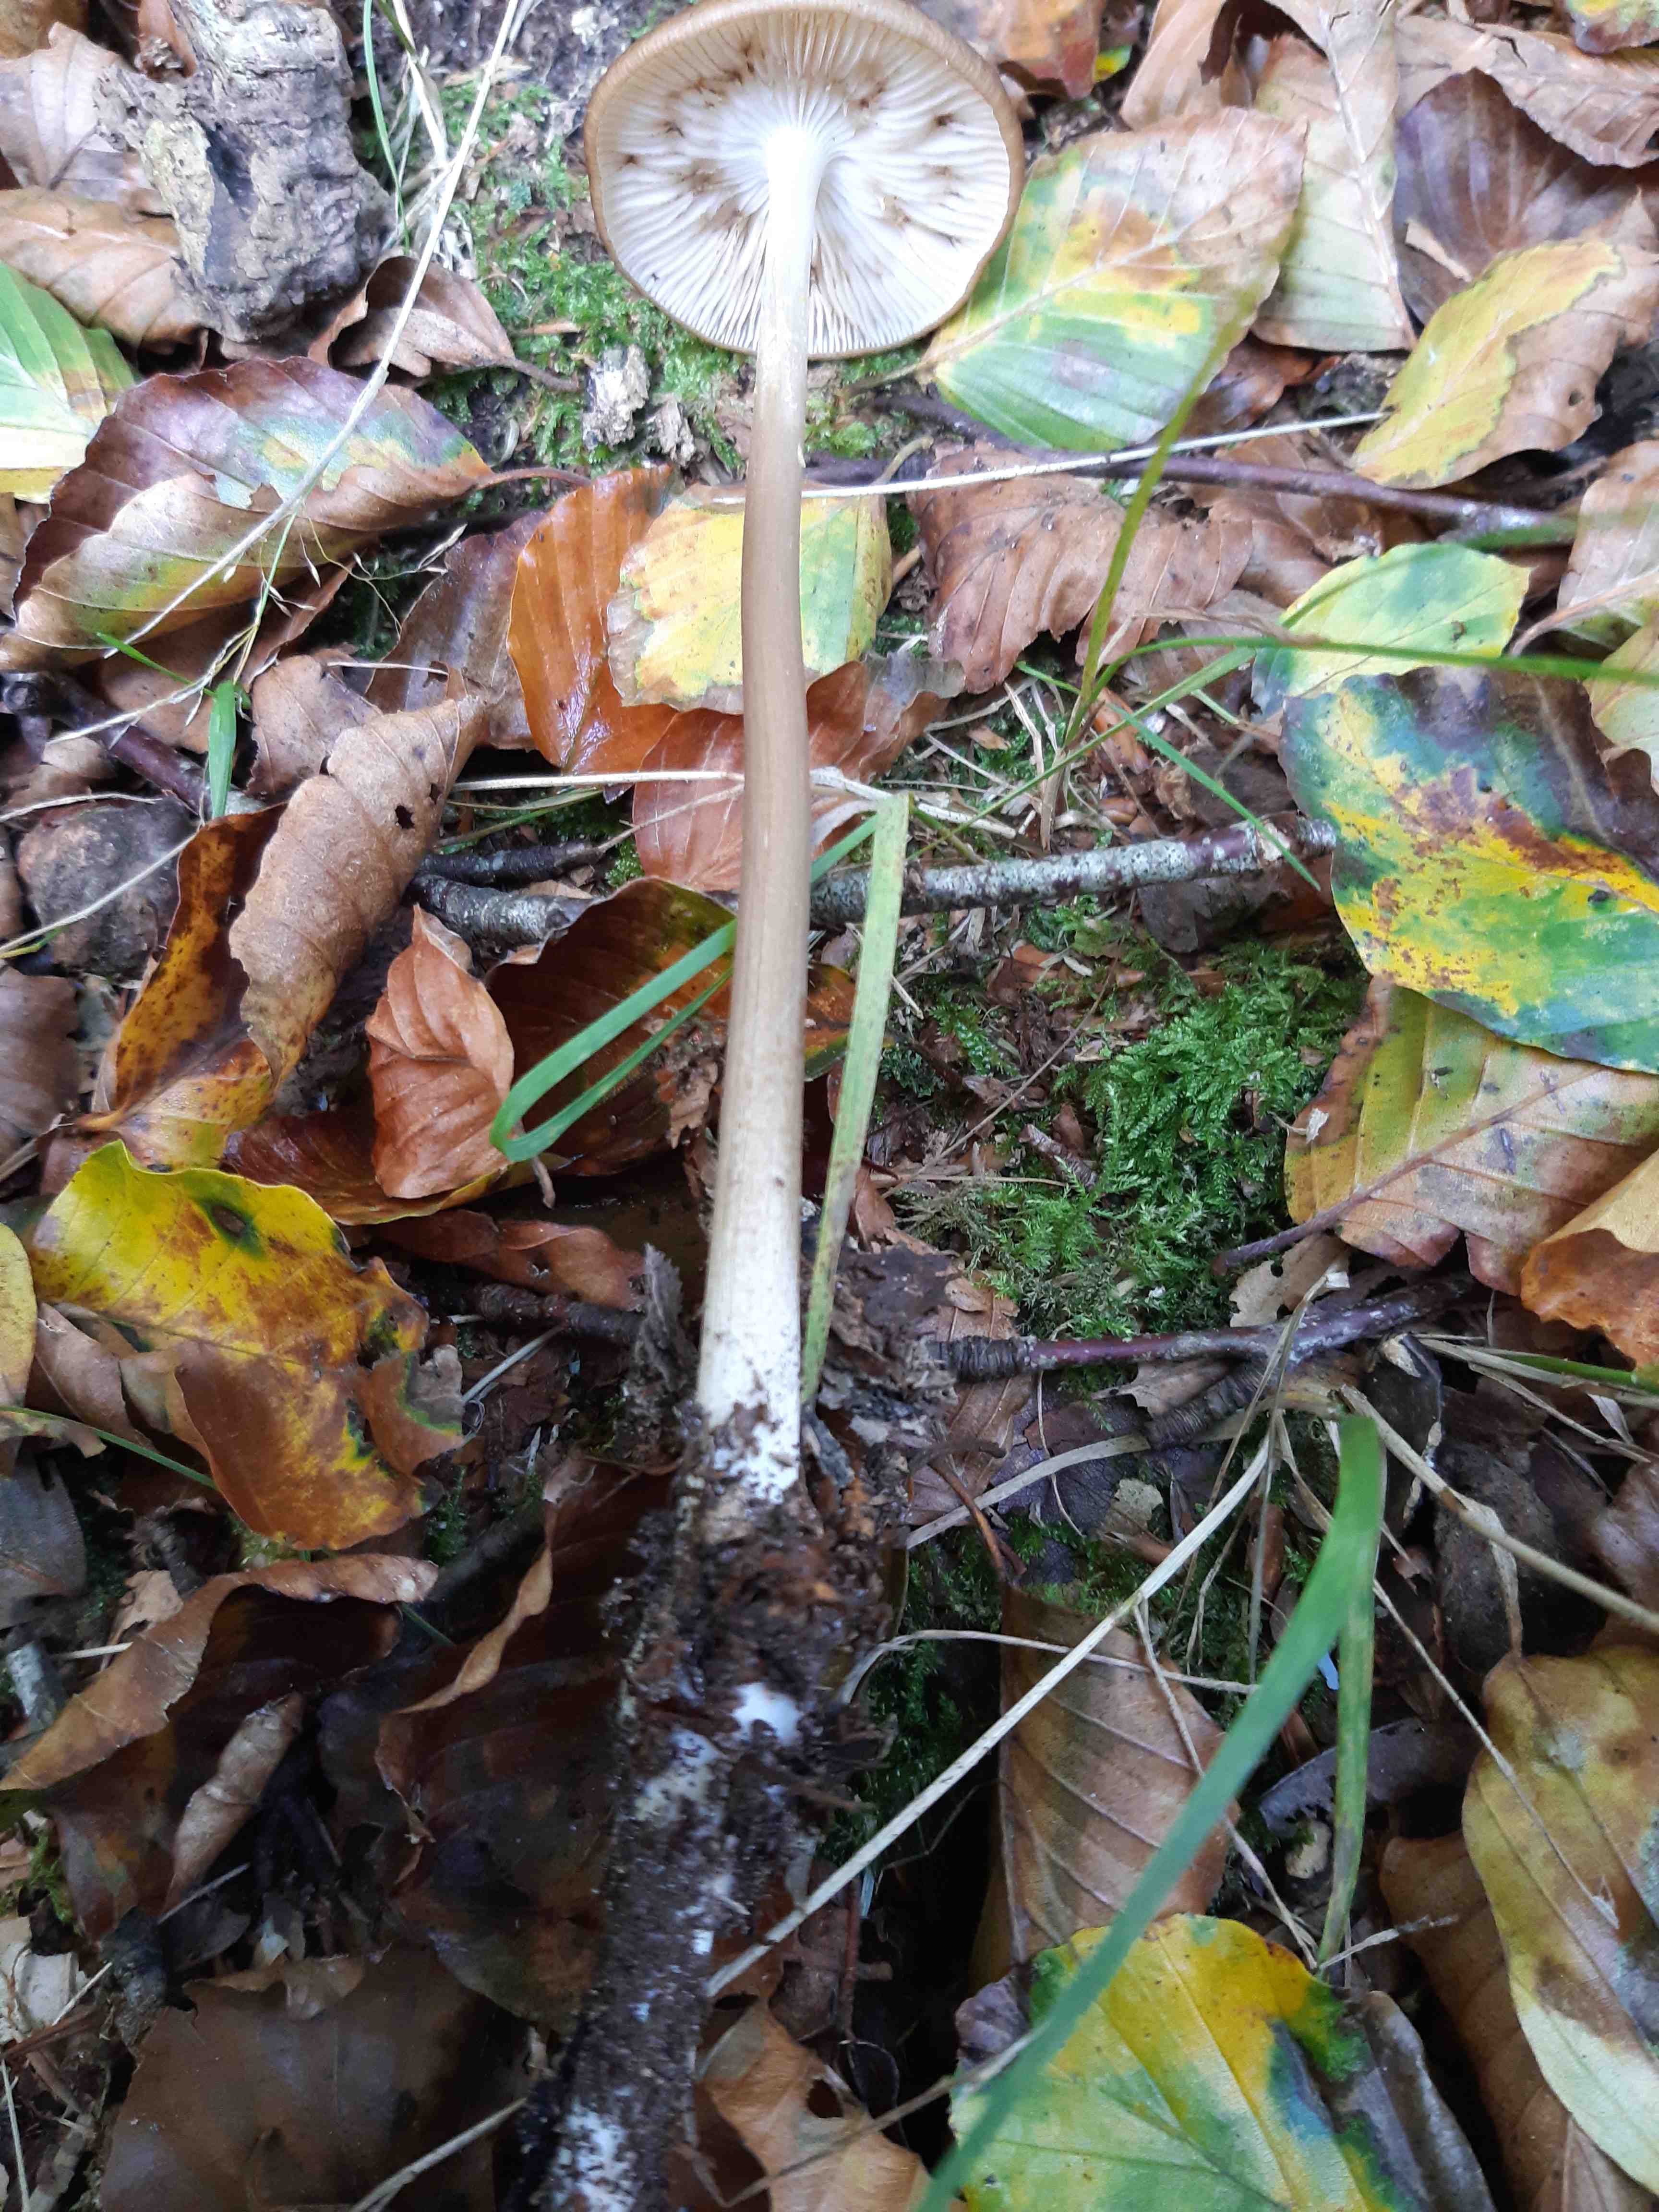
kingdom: Fungi
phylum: Basidiomycota
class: Agaricomycetes
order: Agaricales
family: Physalacriaceae
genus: Hymenopellis
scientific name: Hymenopellis radicata
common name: almindelig pælerodshat
